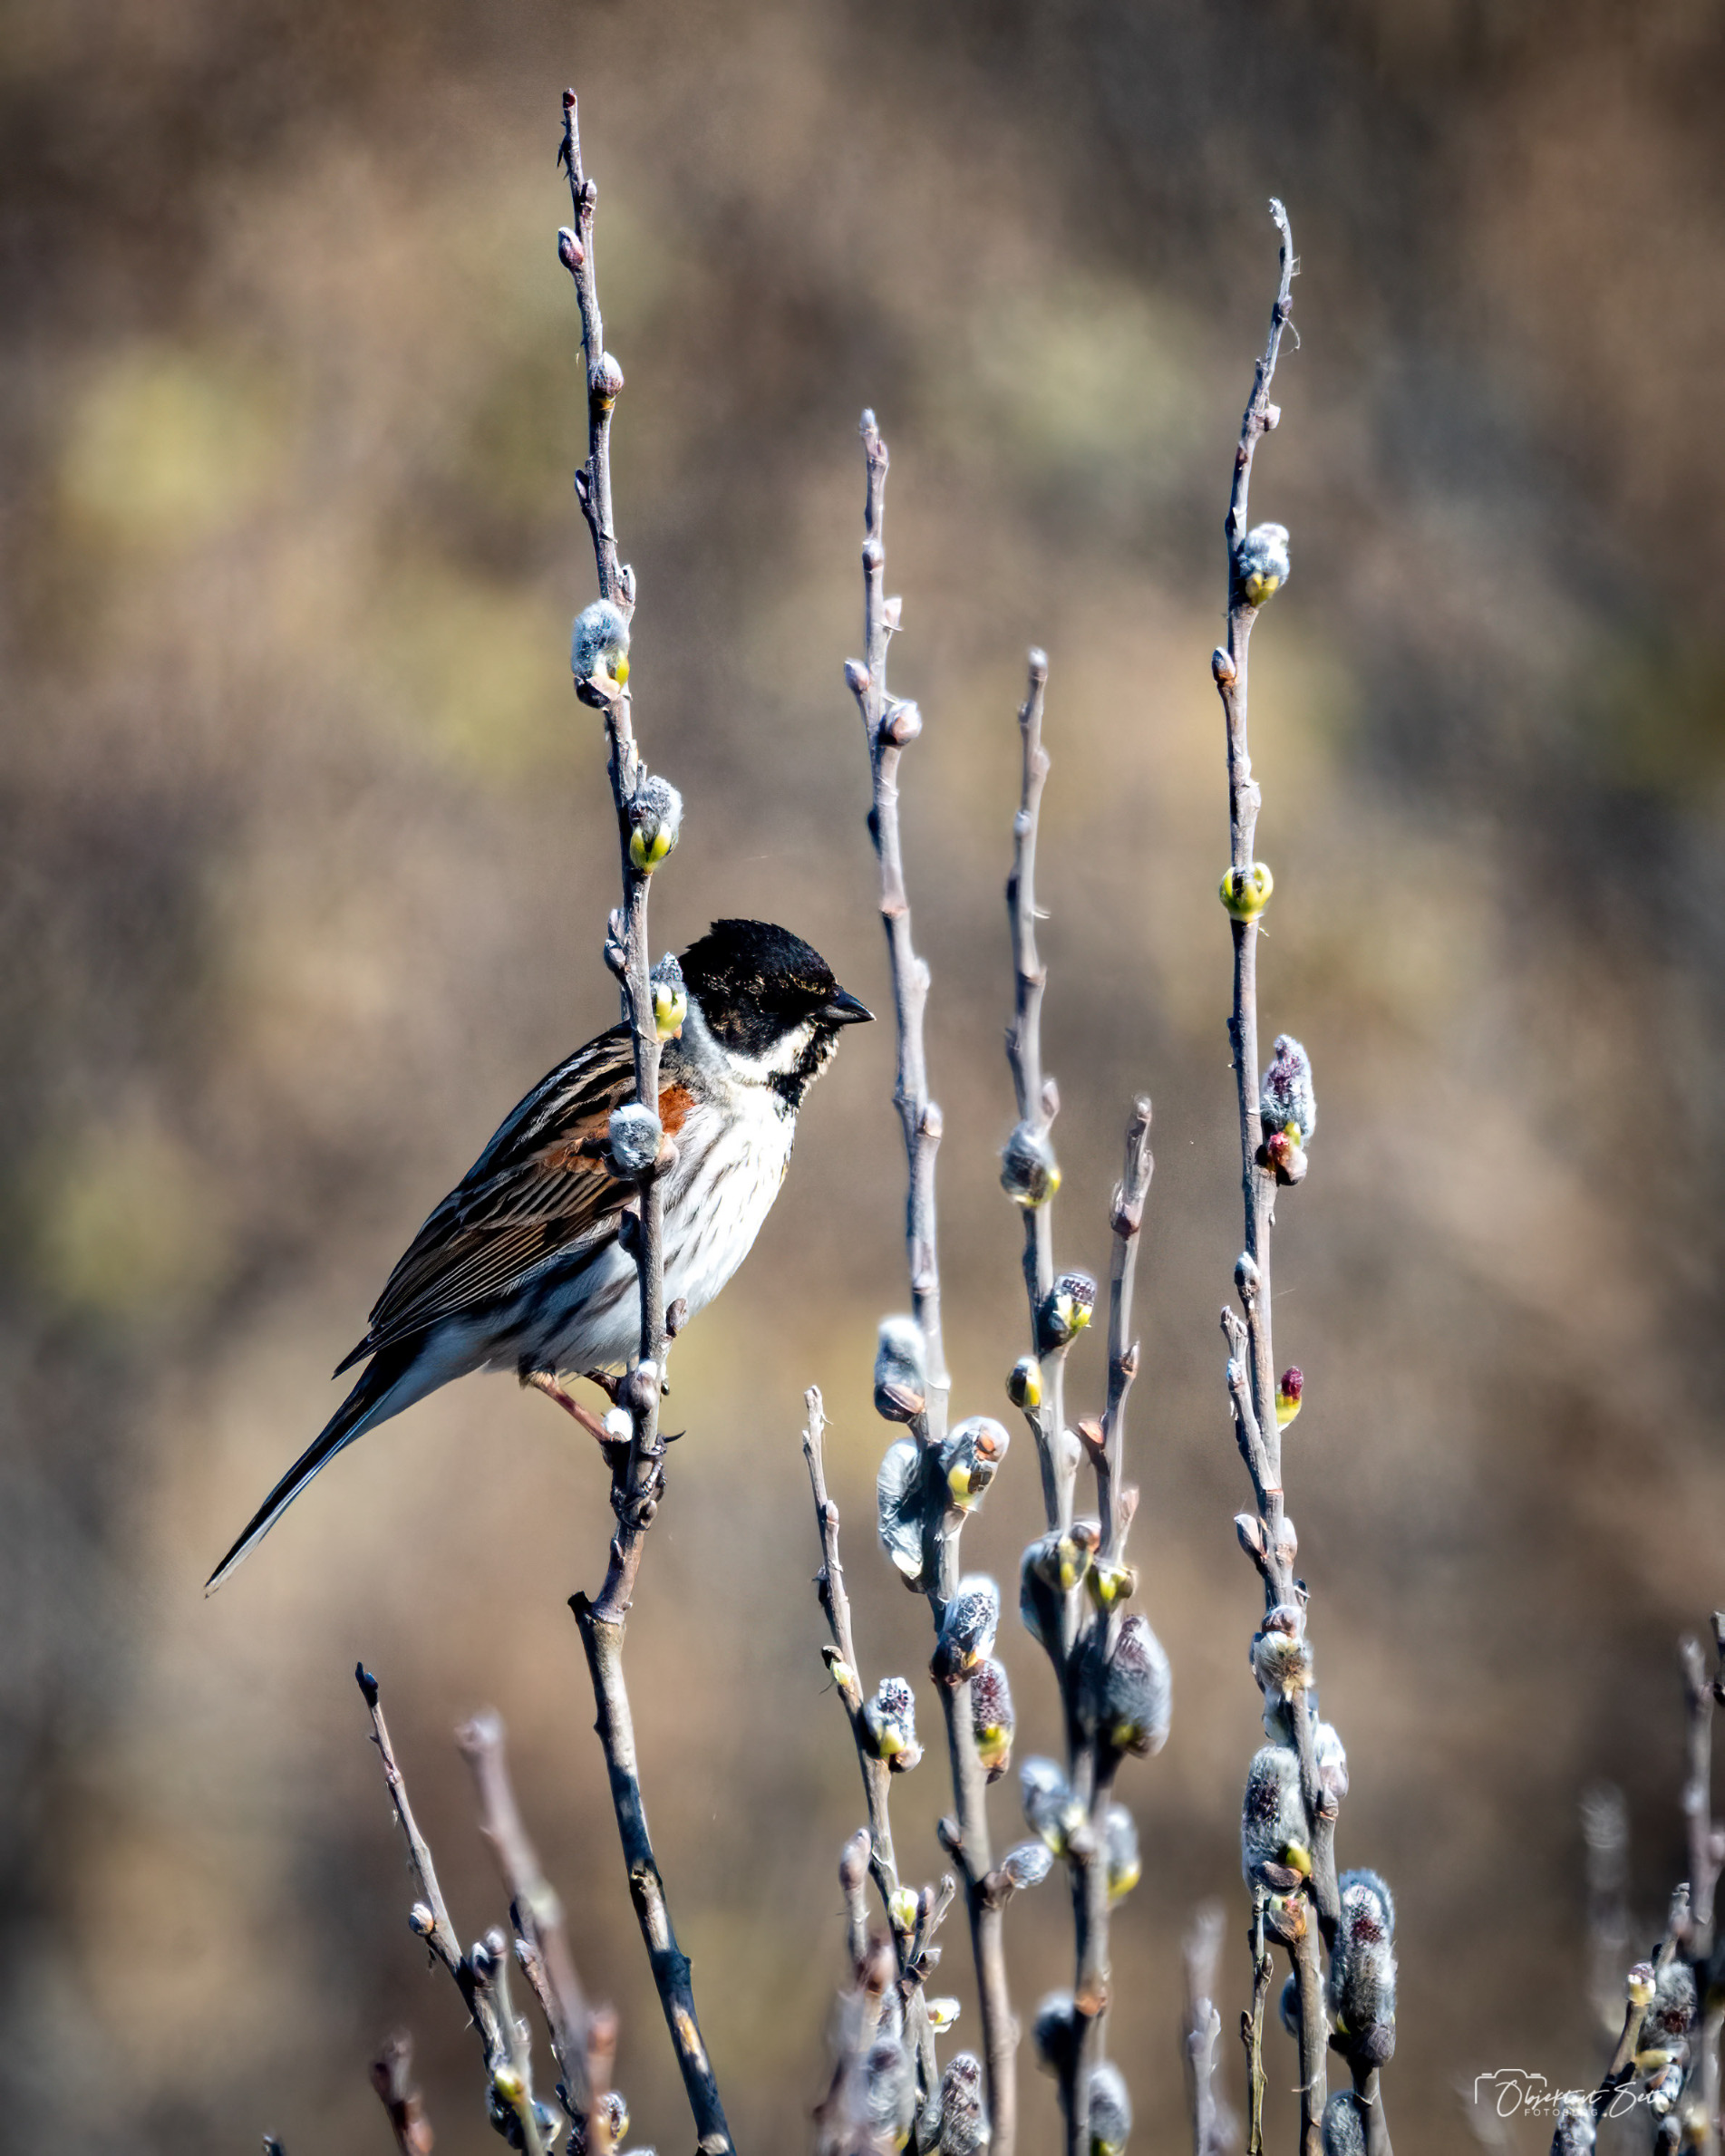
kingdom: Animalia
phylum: Chordata
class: Aves
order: Passeriformes
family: Emberizidae
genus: Emberiza
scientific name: Emberiza schoeniclus
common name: Rørspurv
